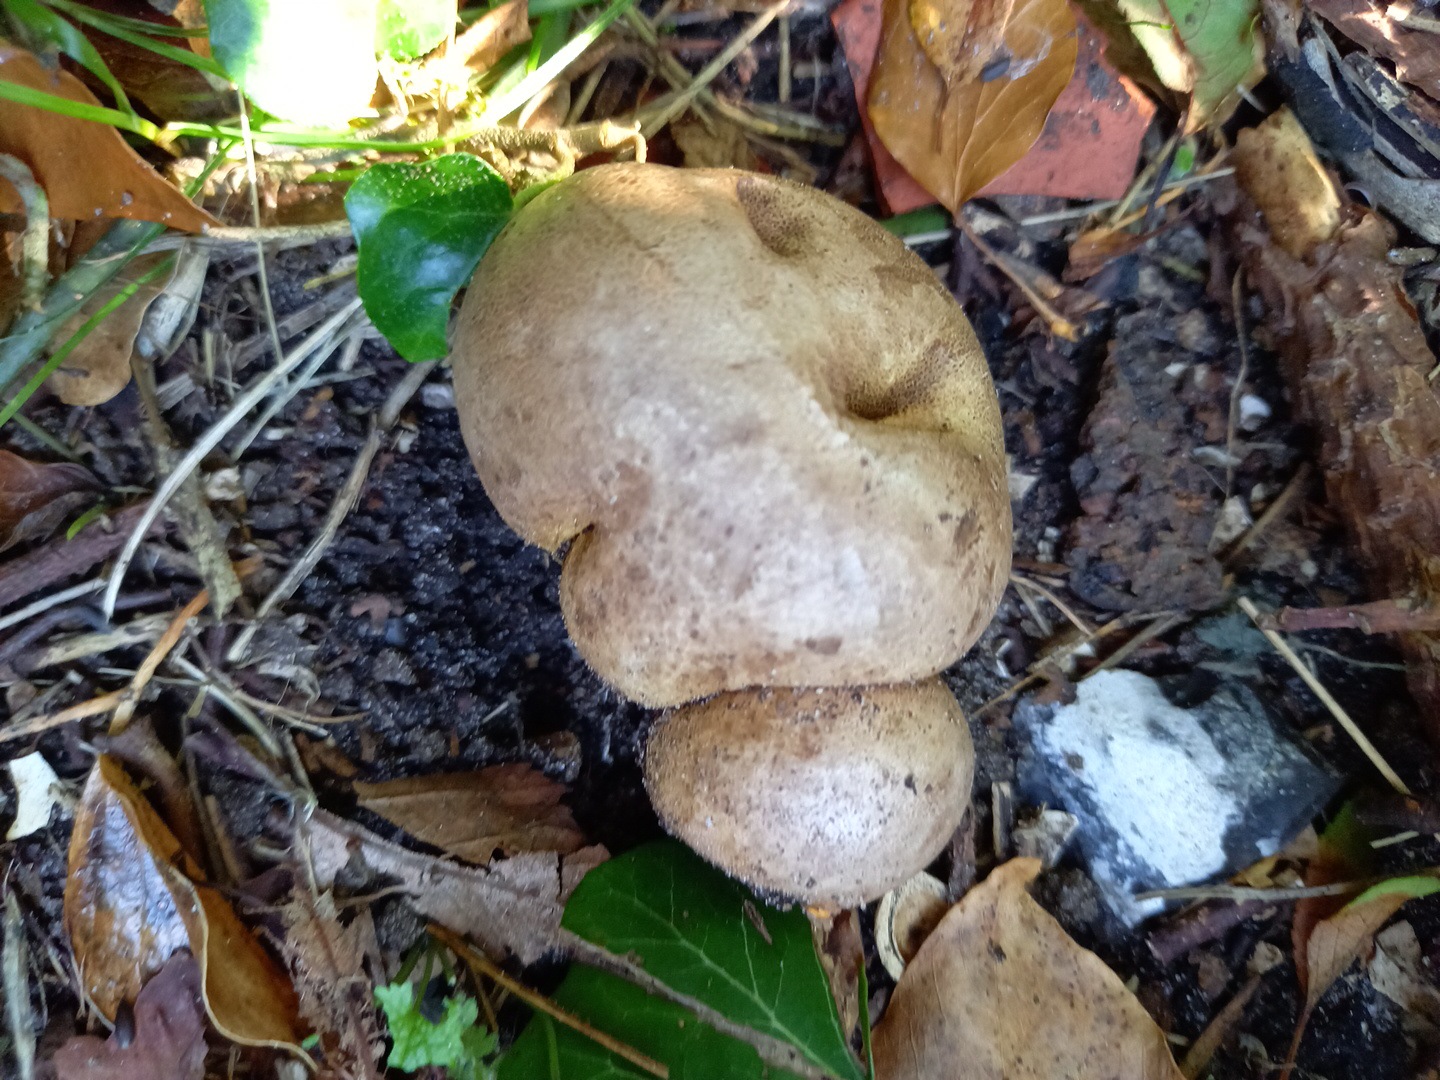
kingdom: Fungi
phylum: Basidiomycota
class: Agaricomycetes
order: Boletales
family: Sclerodermataceae
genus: Scleroderma
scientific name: Scleroderma bovista
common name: bovist-bruskbold
